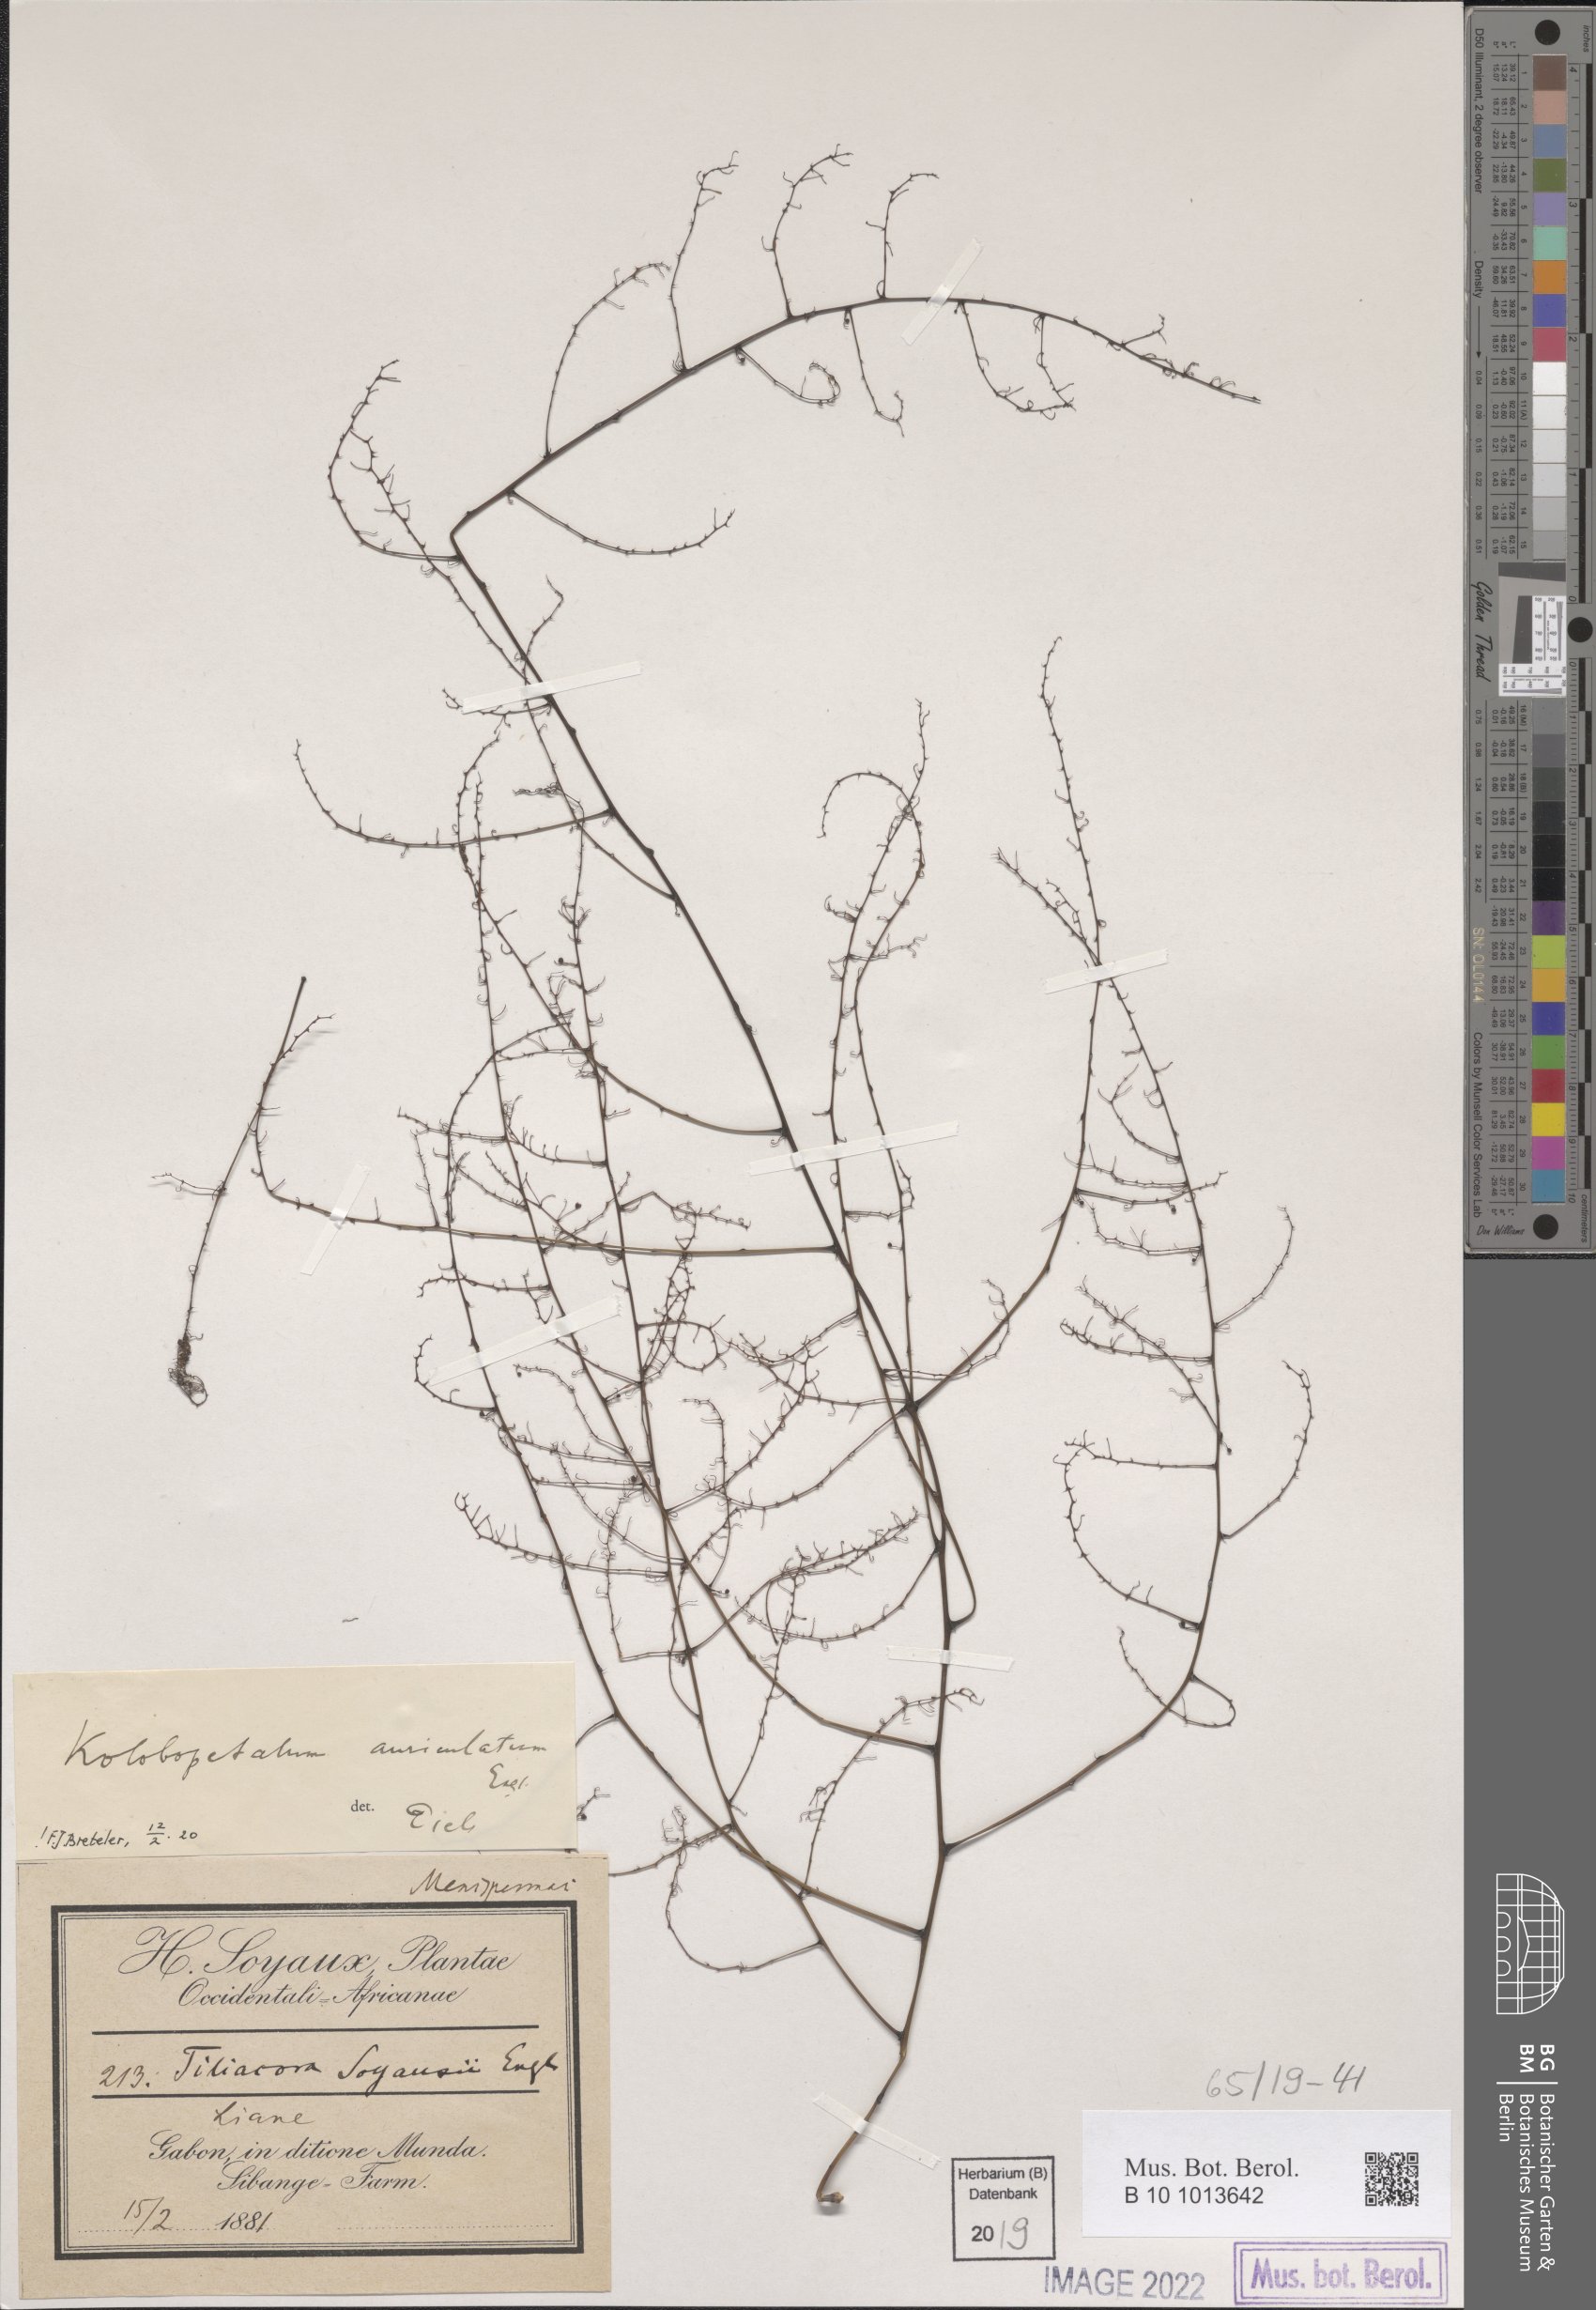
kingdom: Plantae
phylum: Tracheophyta
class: Magnoliopsida
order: Ranunculales
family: Menispermaceae
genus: Kolobopetalum
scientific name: Kolobopetalum auriculatum
